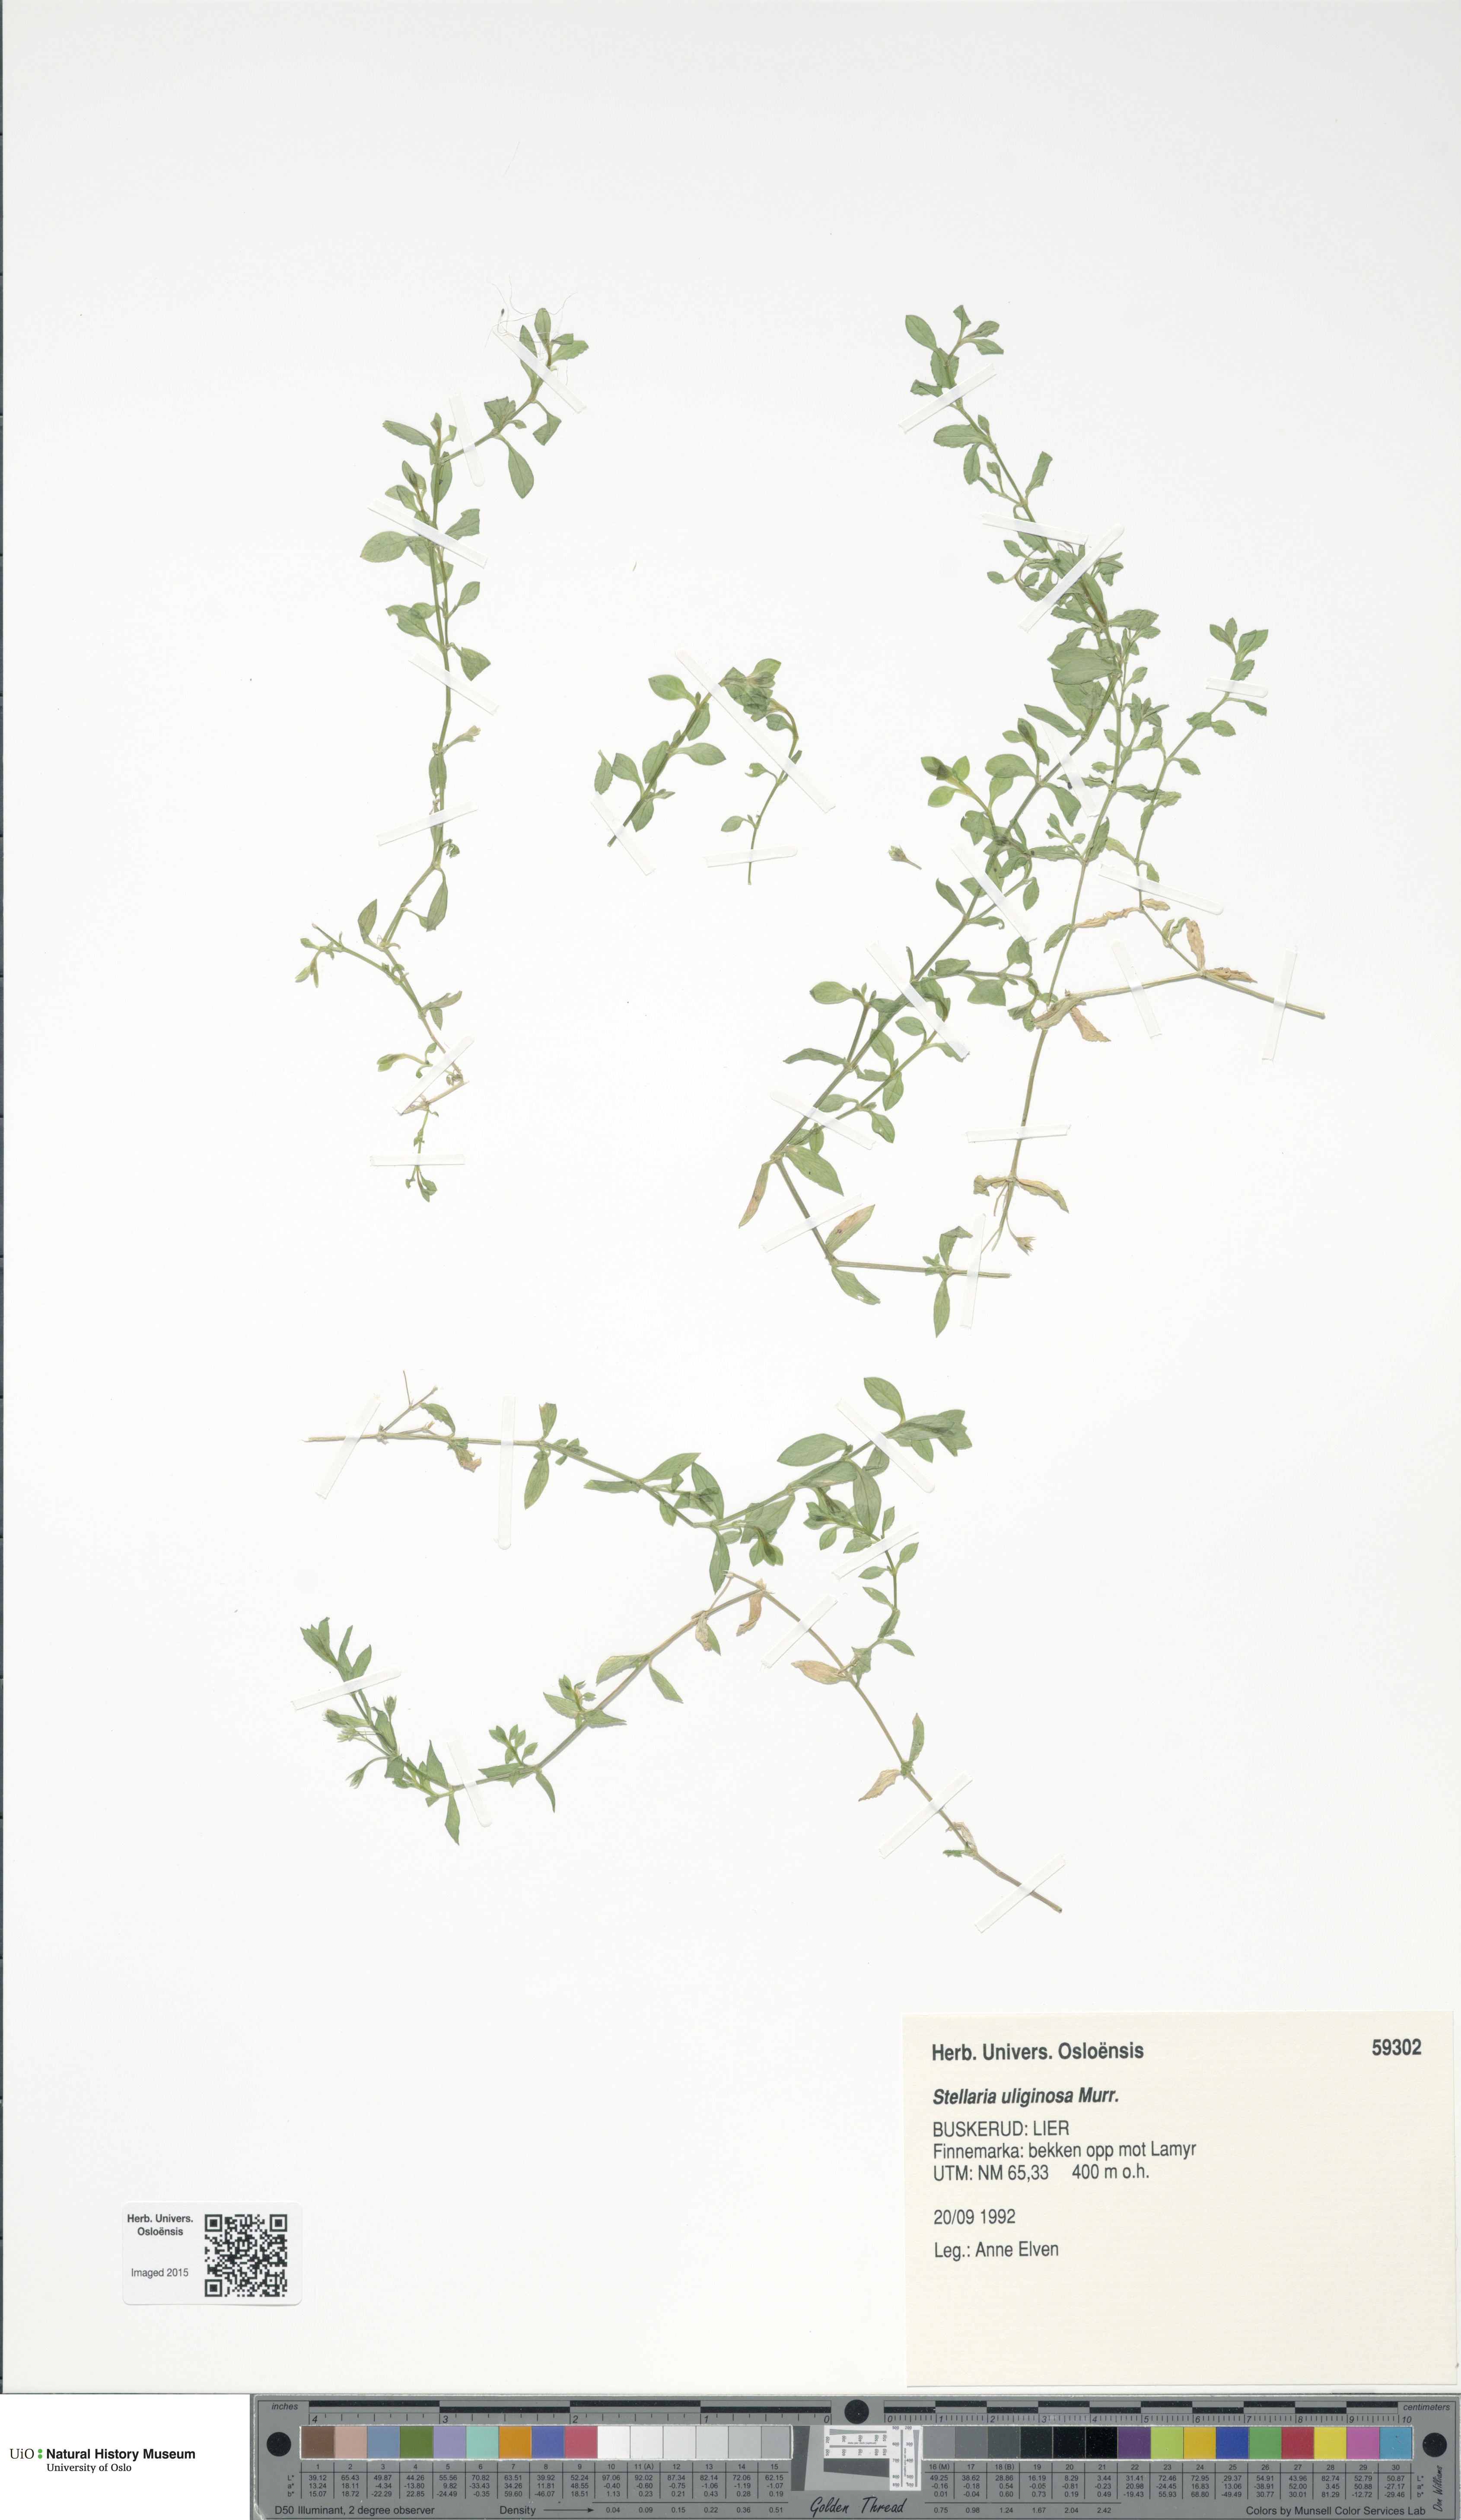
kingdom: Plantae
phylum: Tracheophyta
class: Magnoliopsida
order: Caryophyllales
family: Caryophyllaceae
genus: Stellaria
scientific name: Stellaria alsine
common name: Bog stitchwort
